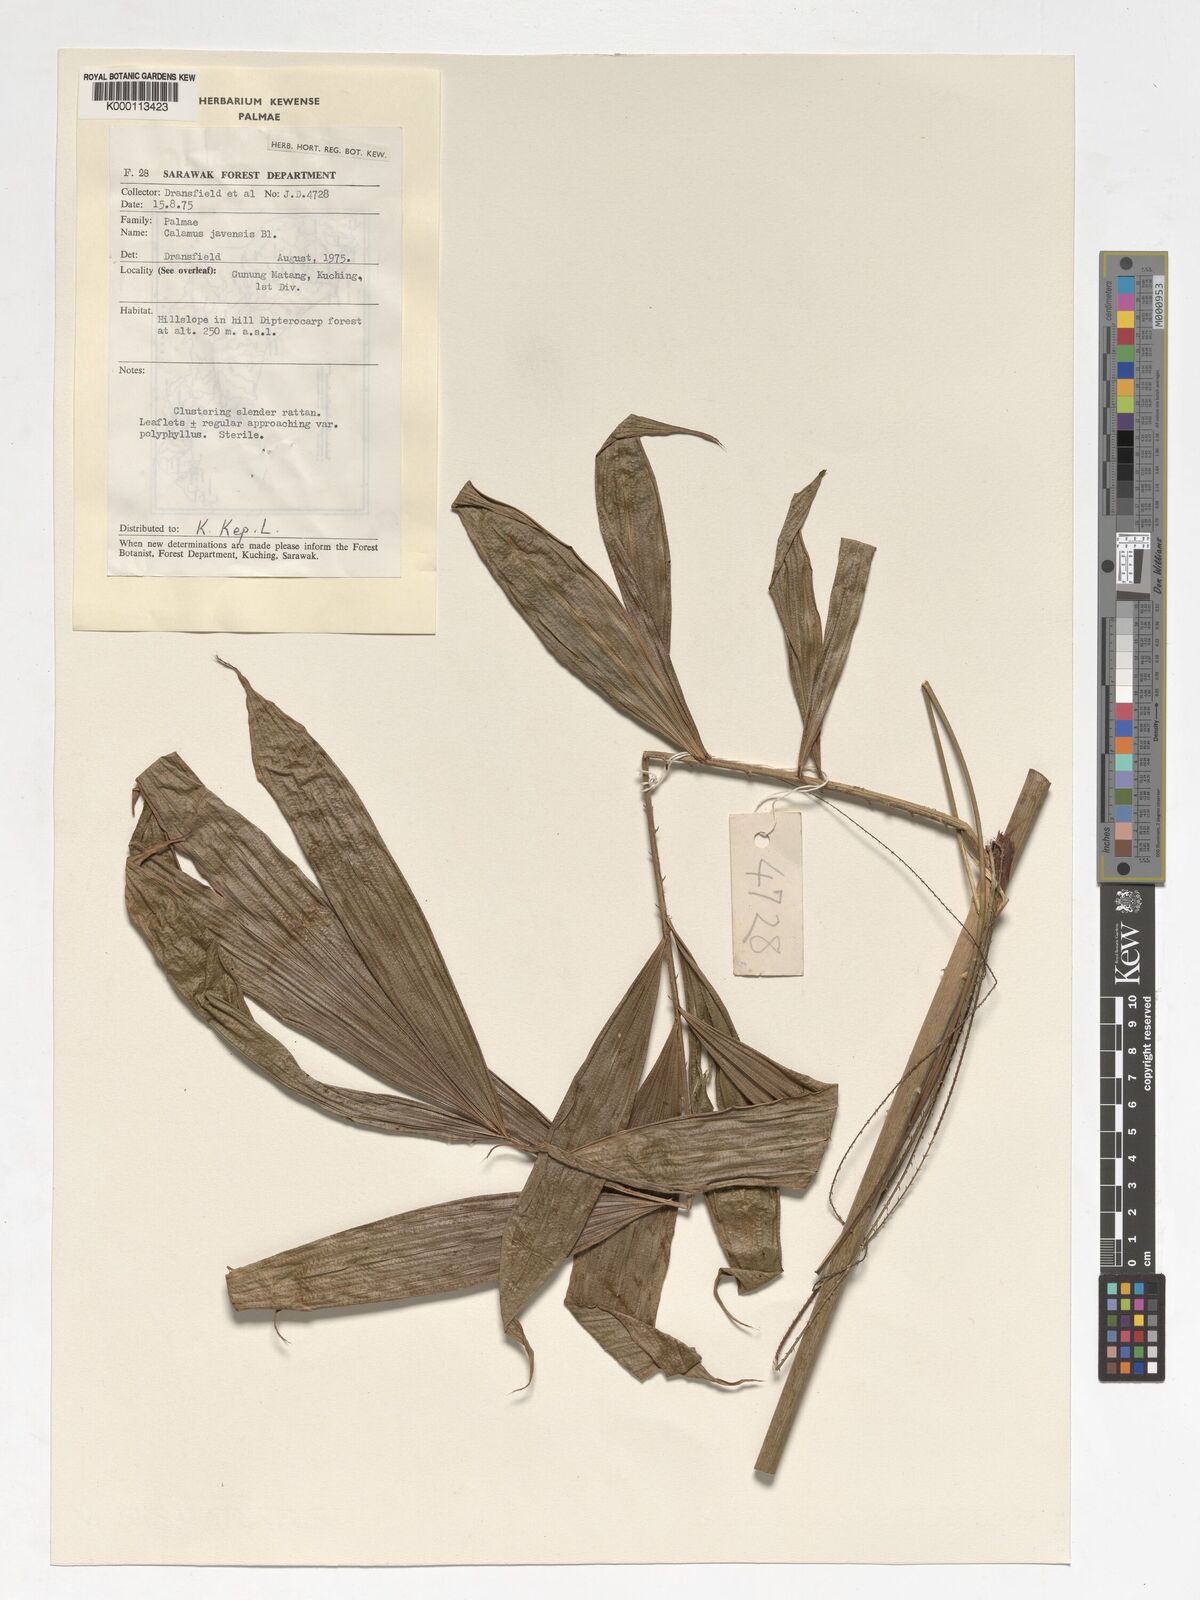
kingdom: Plantae
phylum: Tracheophyta
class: Liliopsida
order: Arecales
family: Arecaceae
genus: Calamus
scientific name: Calamus javensis
